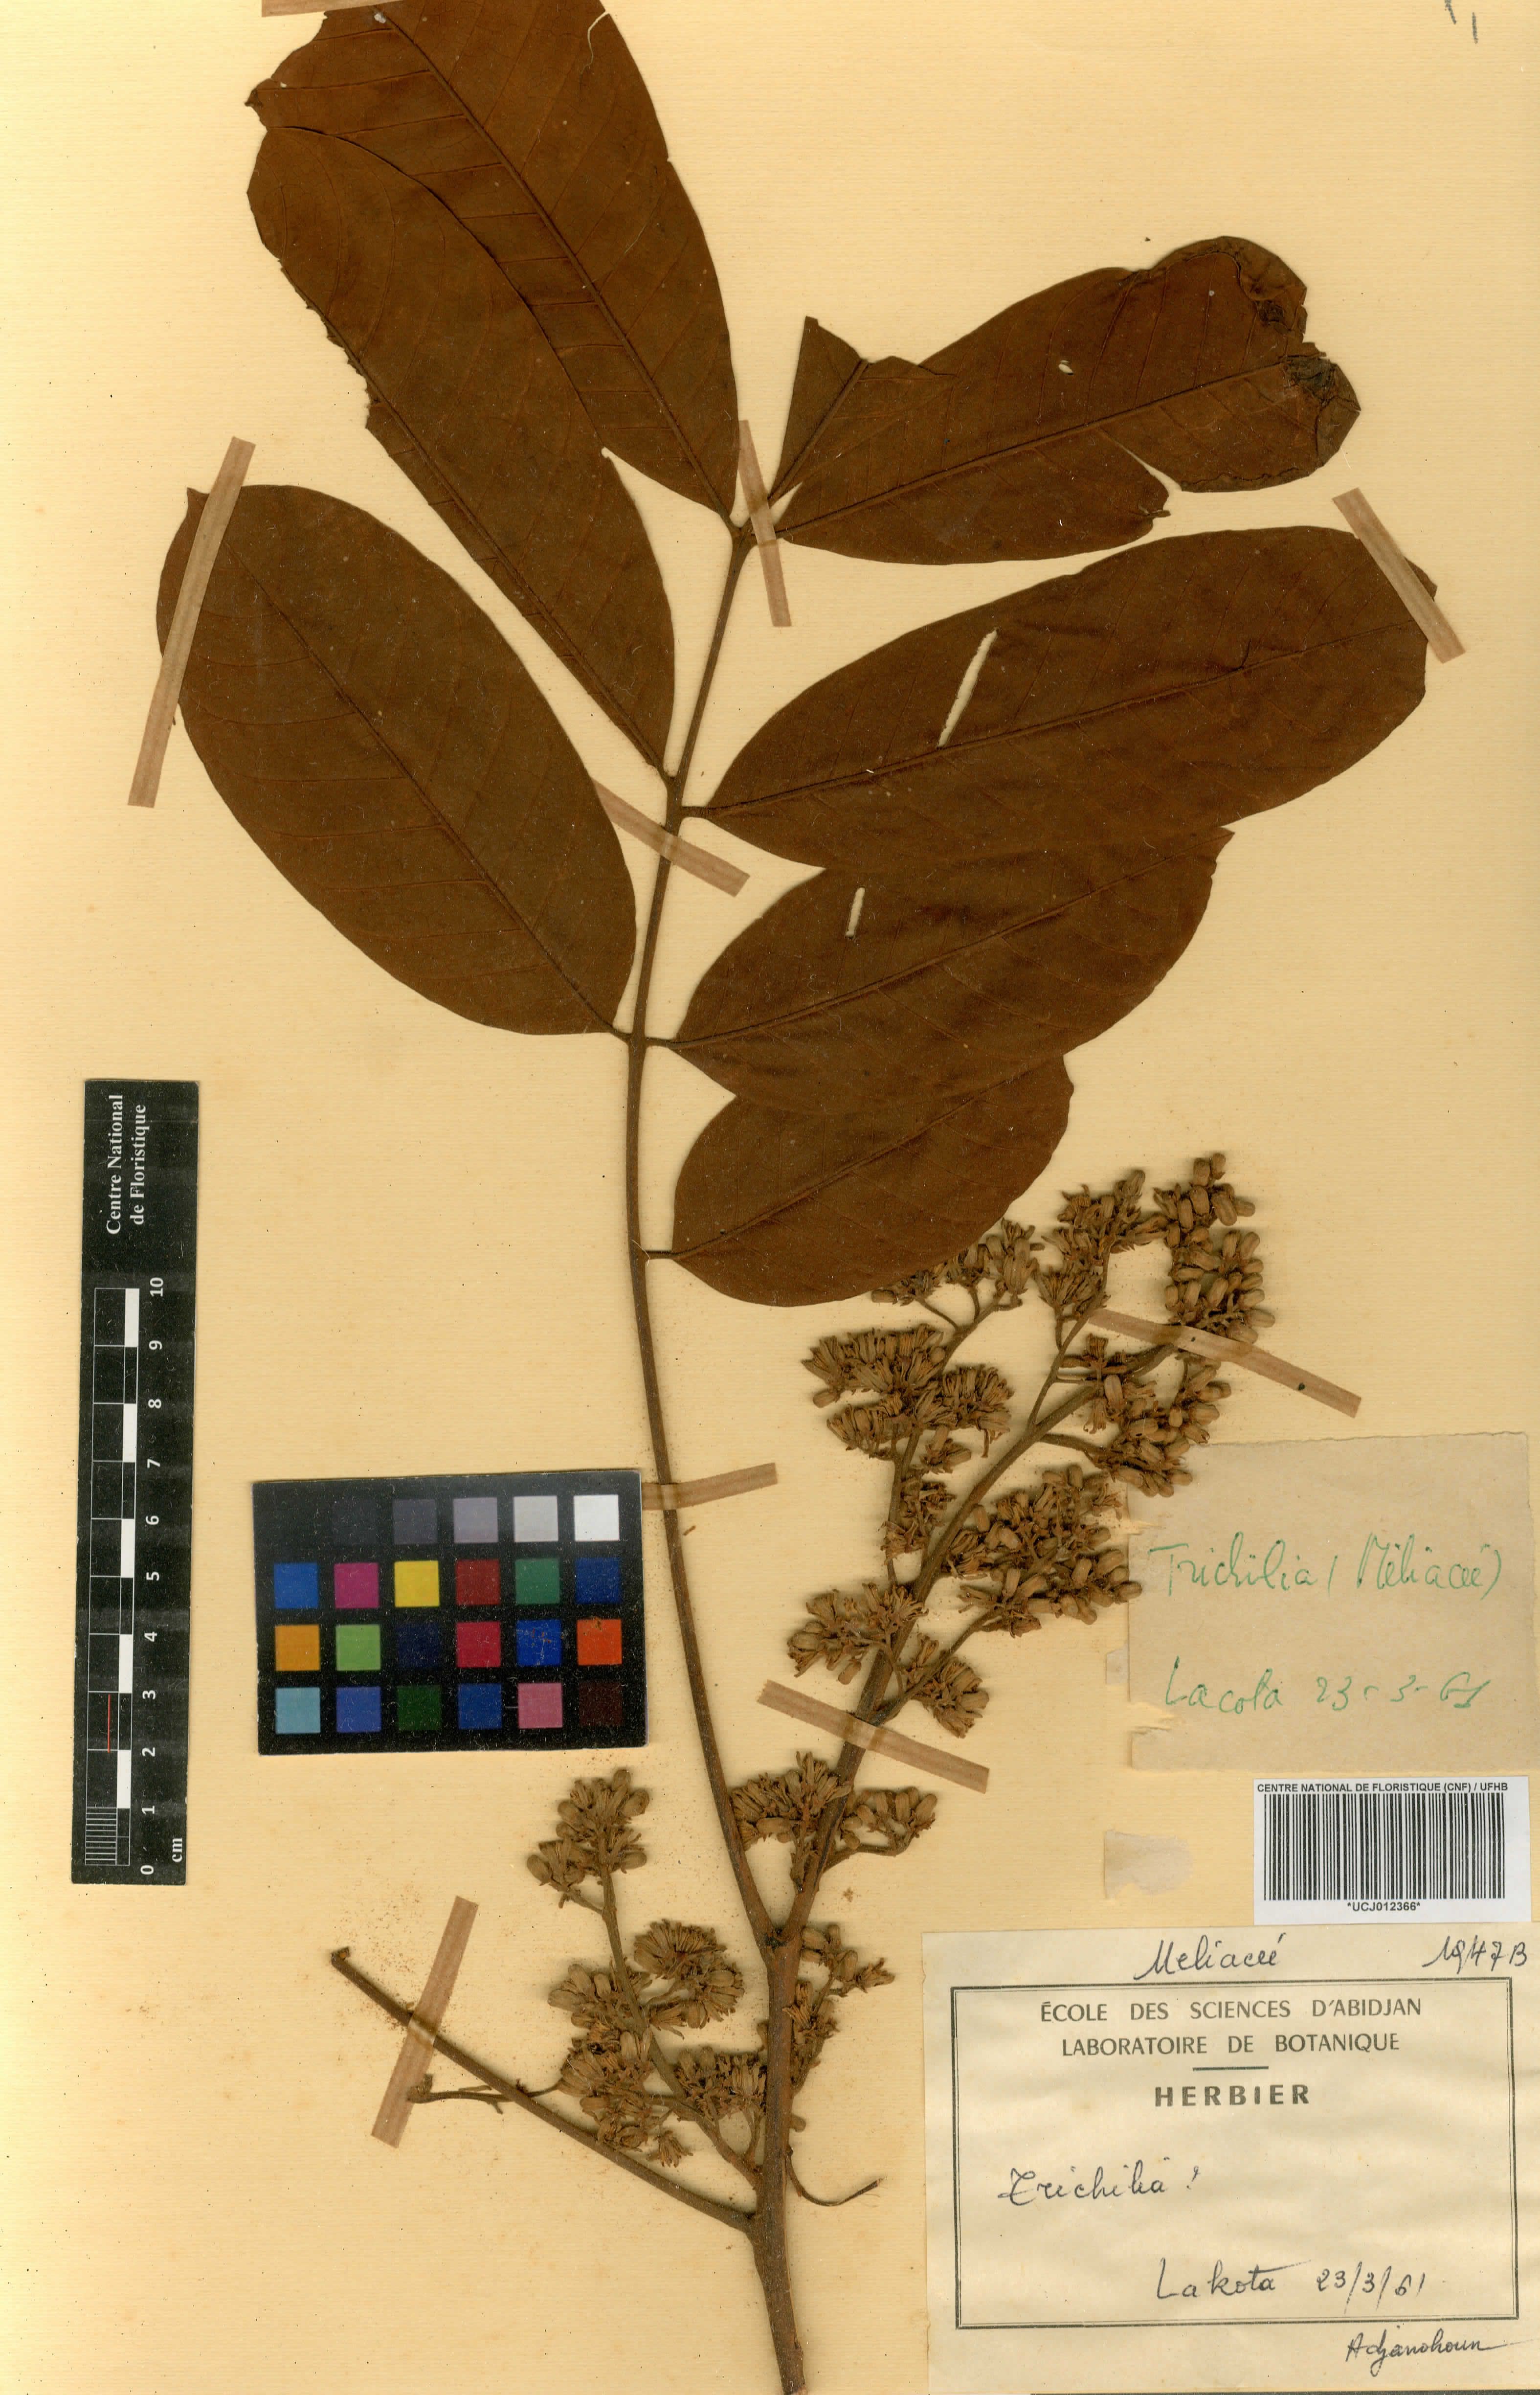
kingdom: Plantae
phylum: Tracheophyta
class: Magnoliopsida
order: Sapindales
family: Meliaceae
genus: Trichilia
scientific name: Trichilia
